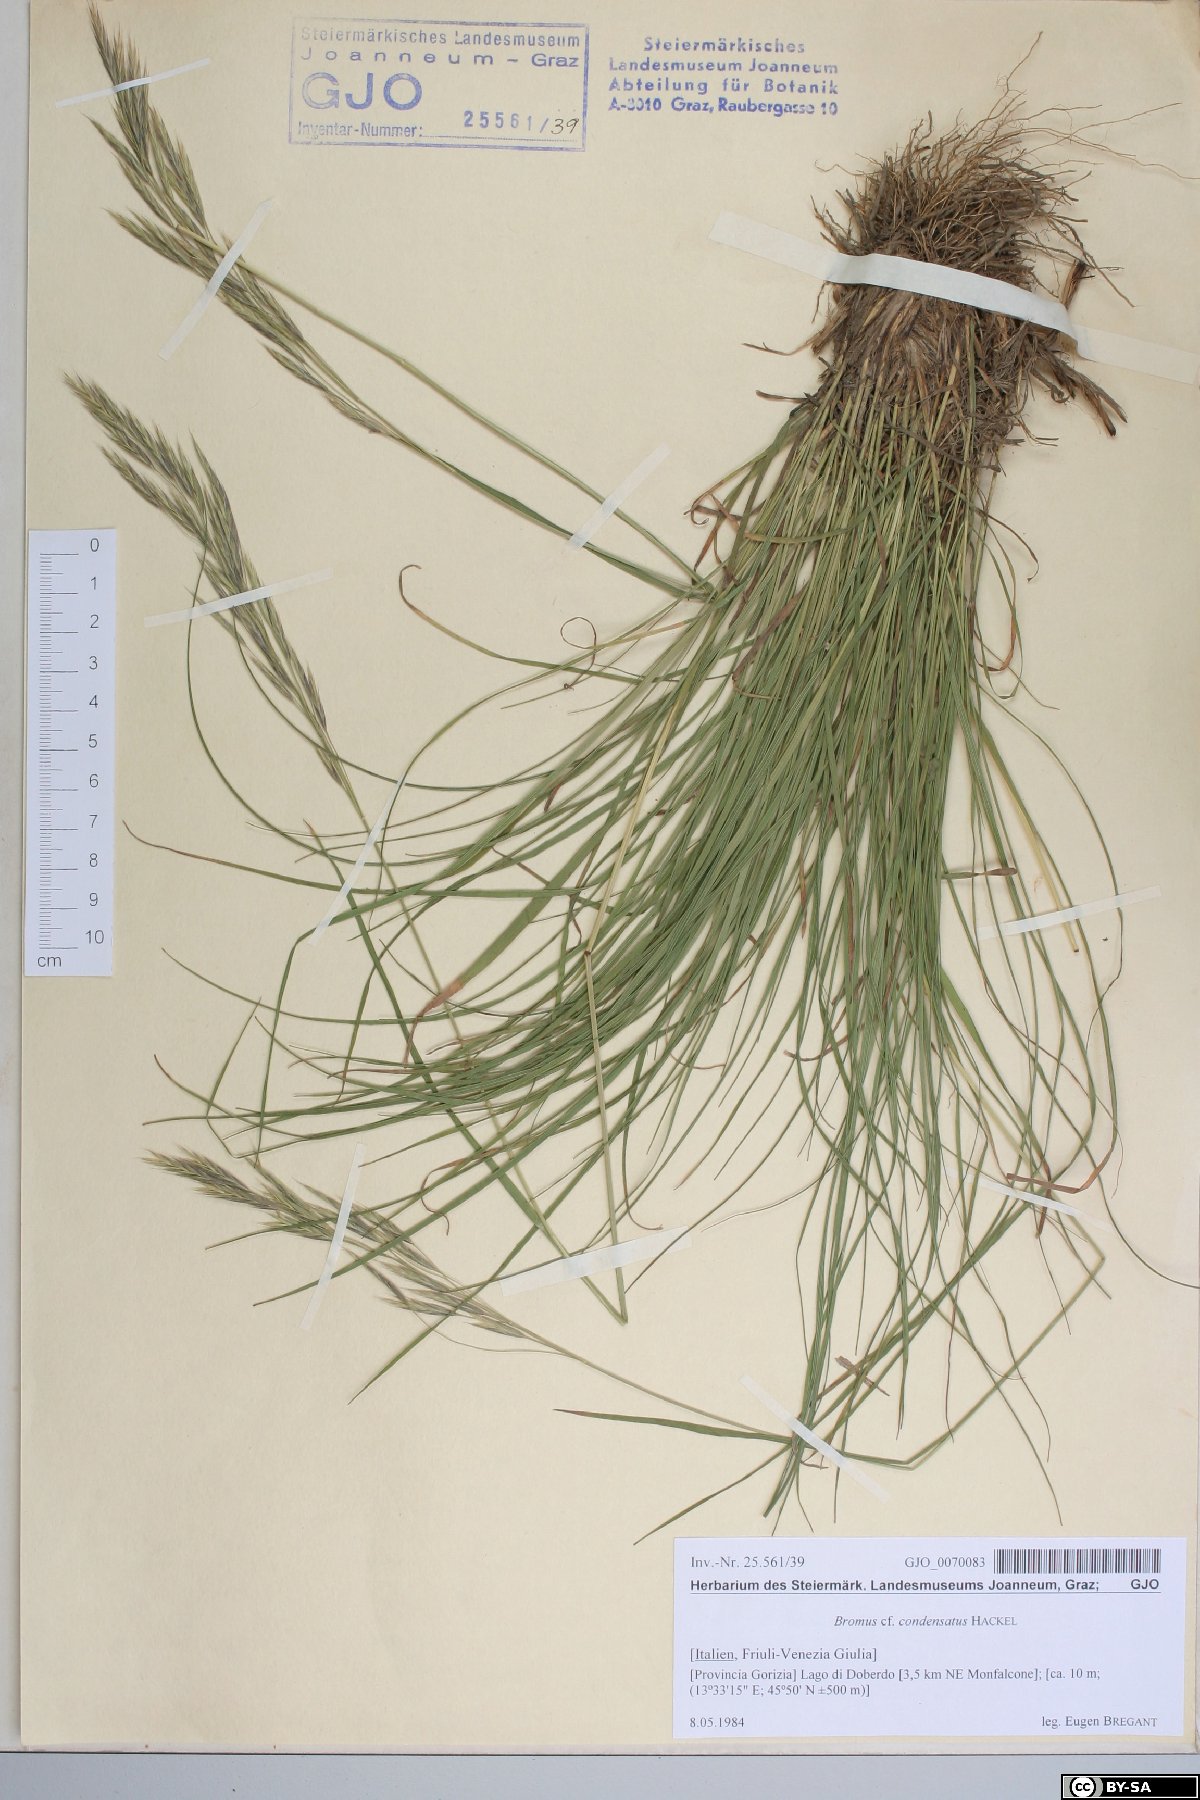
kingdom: Plantae
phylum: Tracheophyta
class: Liliopsida
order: Poales
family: Poaceae
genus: Bromus
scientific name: Bromus condensatus
